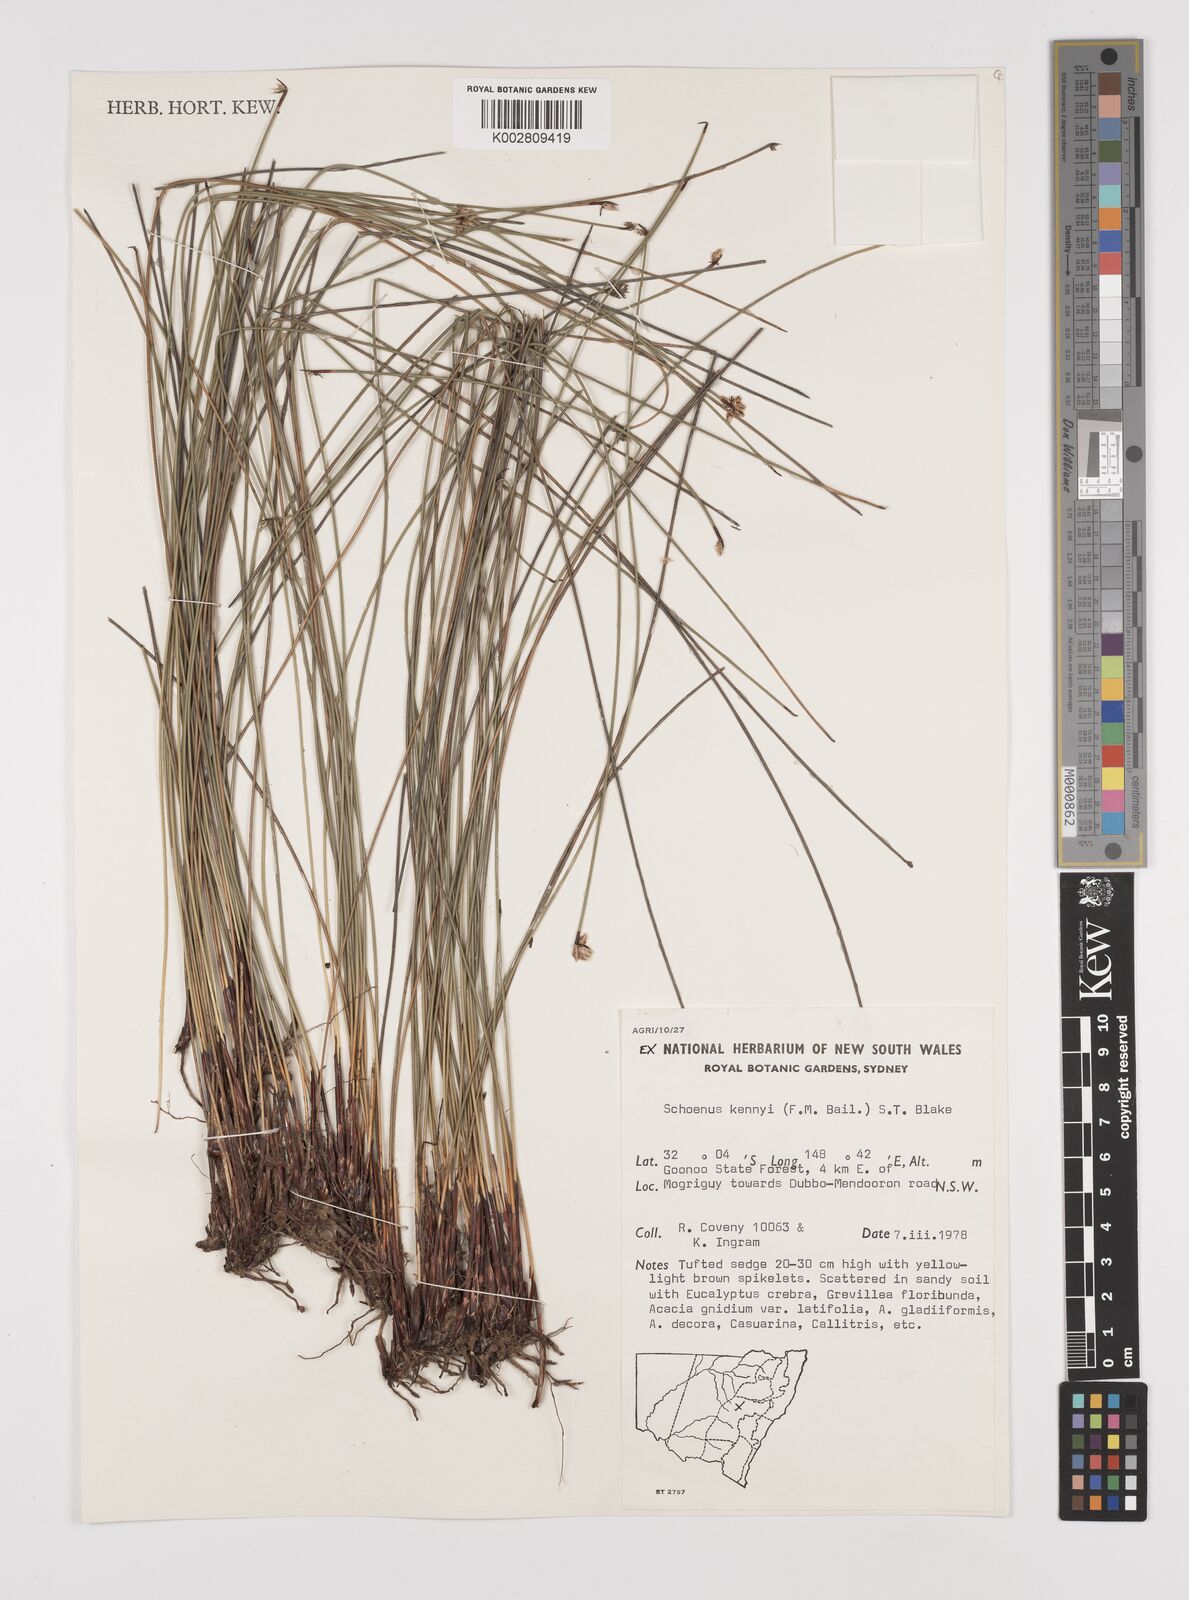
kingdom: Plantae
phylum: Tracheophyta
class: Liliopsida
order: Poales
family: Cyperaceae
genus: Schoenus
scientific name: Schoenus kennyi
